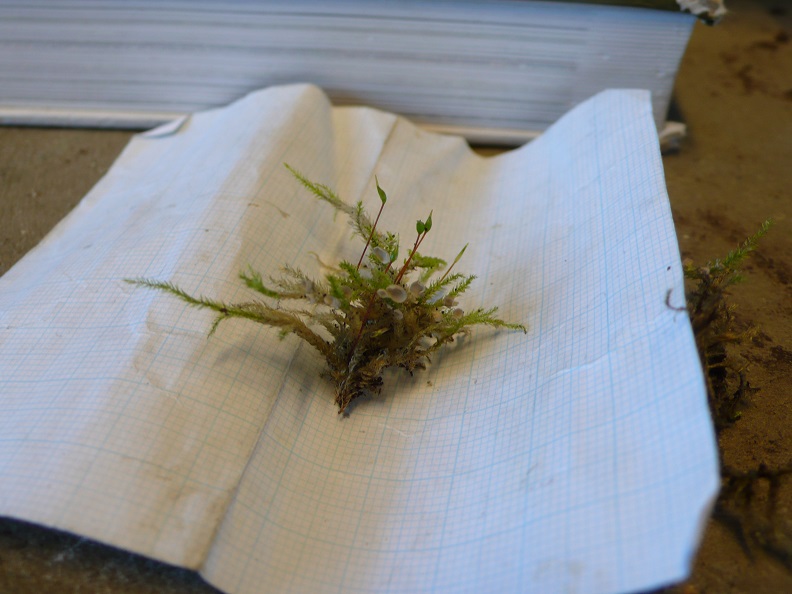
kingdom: Fungi
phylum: Basidiomycota
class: Agaricomycetes
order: Agaricales
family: Hygrophoraceae
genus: Arrhenia
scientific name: Arrhenia retiruga
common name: lille fontænehat
